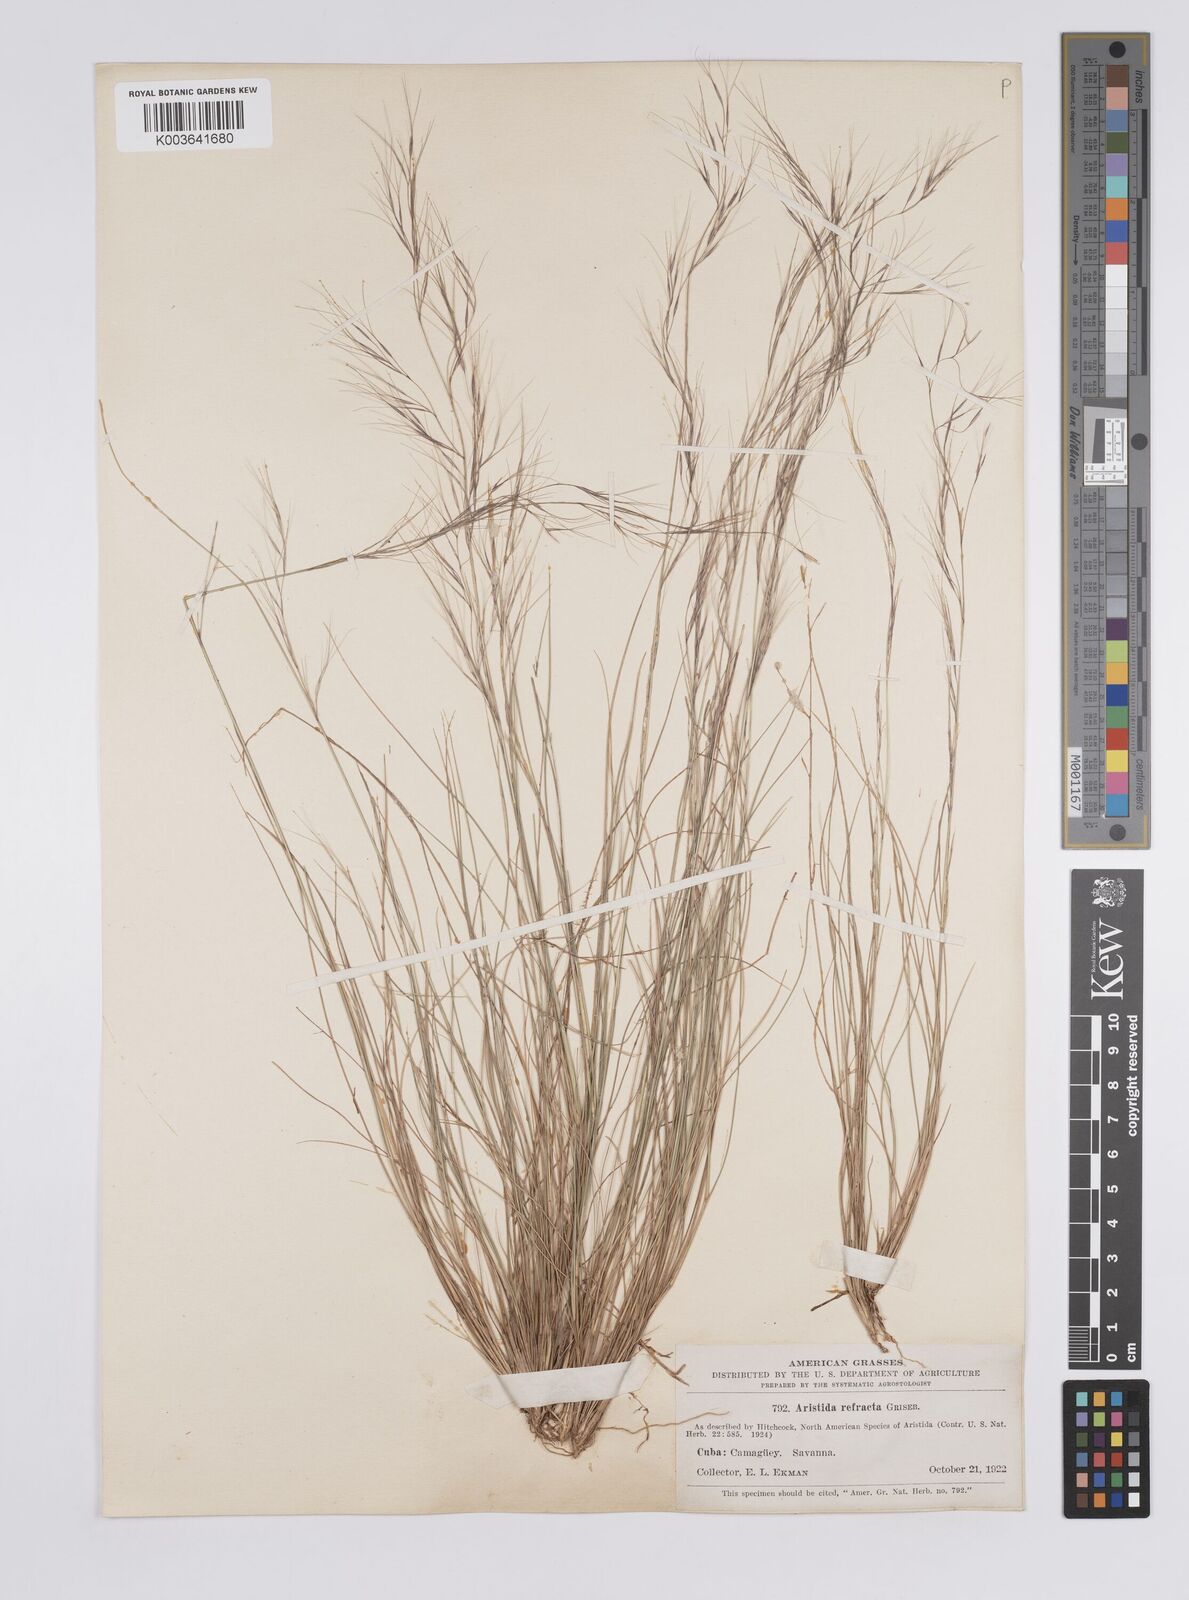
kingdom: Plantae
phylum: Tracheophyta
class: Liliopsida
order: Poales
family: Poaceae
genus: Aristida
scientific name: Aristida refracta
